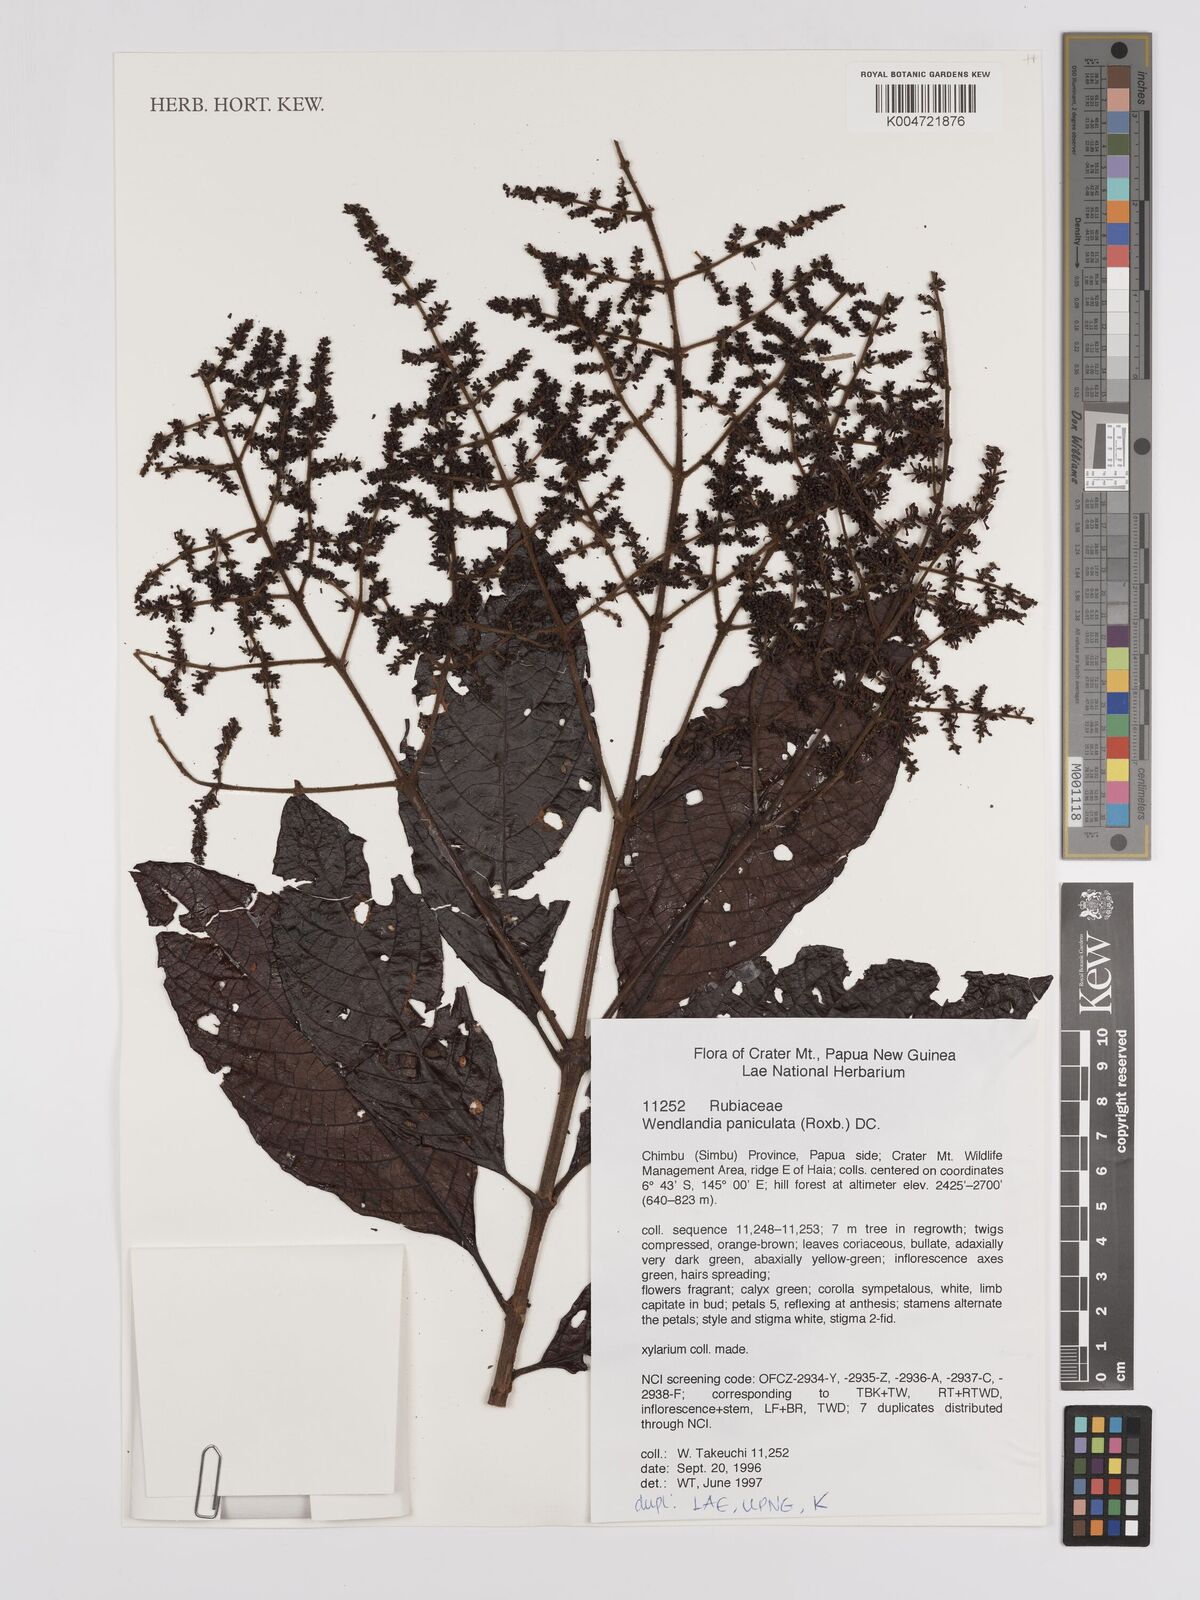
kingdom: Plantae
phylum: Tracheophyta
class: Magnoliopsida
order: Gentianales
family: Rubiaceae
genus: Wendlandia
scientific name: Wendlandia paniculata
